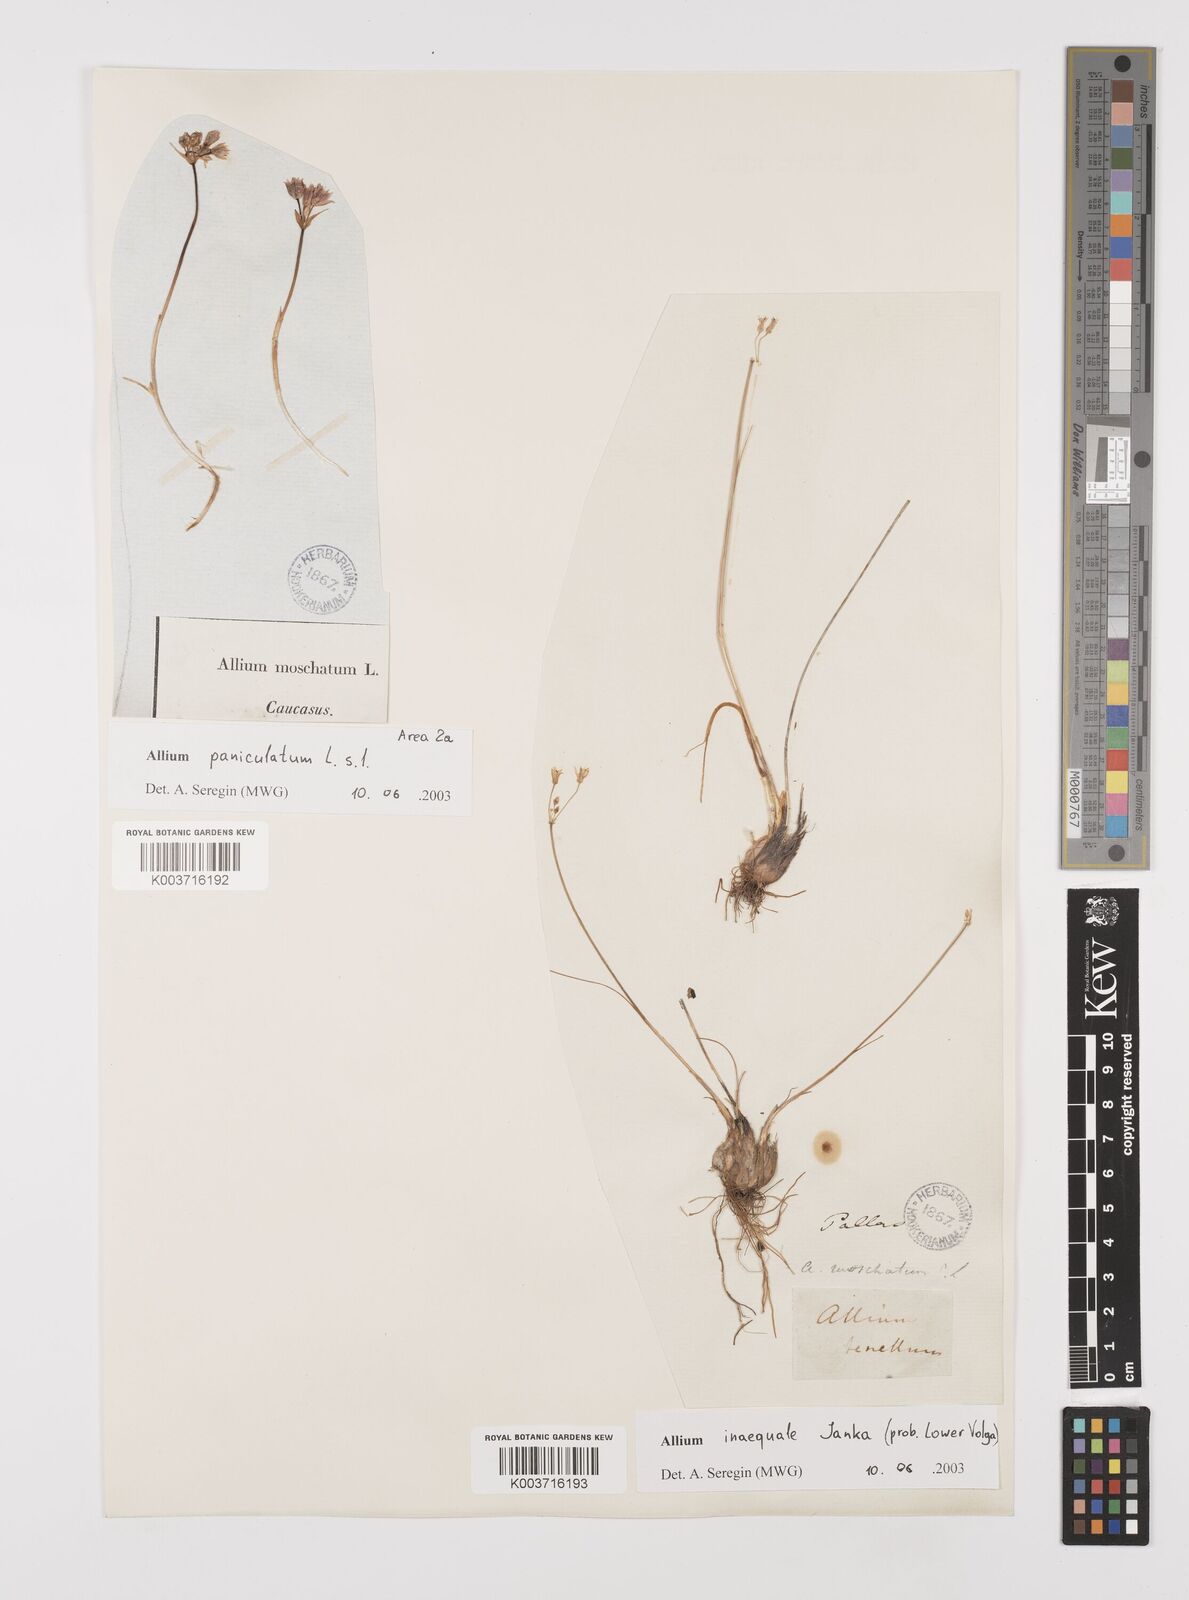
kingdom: Plantae
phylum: Tracheophyta
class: Liliopsida
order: Asparagales
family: Amaryllidaceae
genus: Allium
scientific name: Allium inaequale
